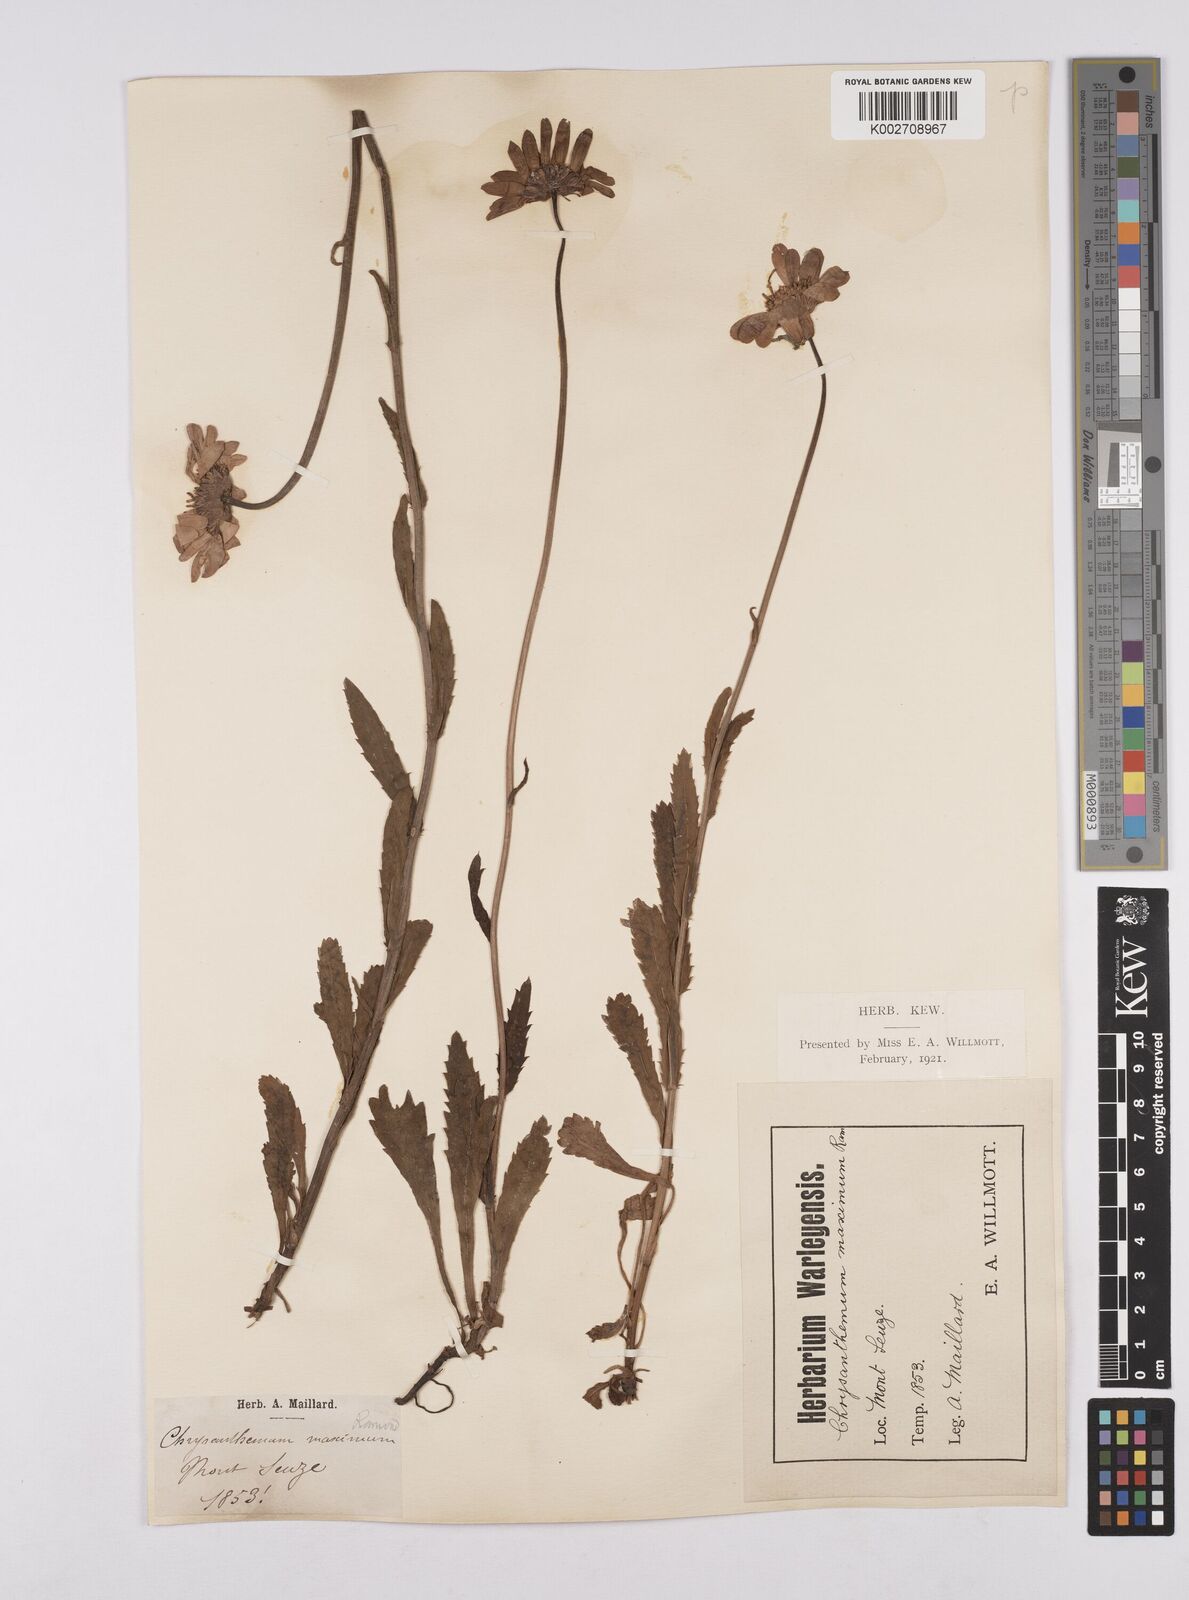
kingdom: Plantae
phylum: Tracheophyta
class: Magnoliopsida
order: Asterales
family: Asteraceae
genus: Leucanthemum
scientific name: Leucanthemum vulgare
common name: Oxeye daisy
